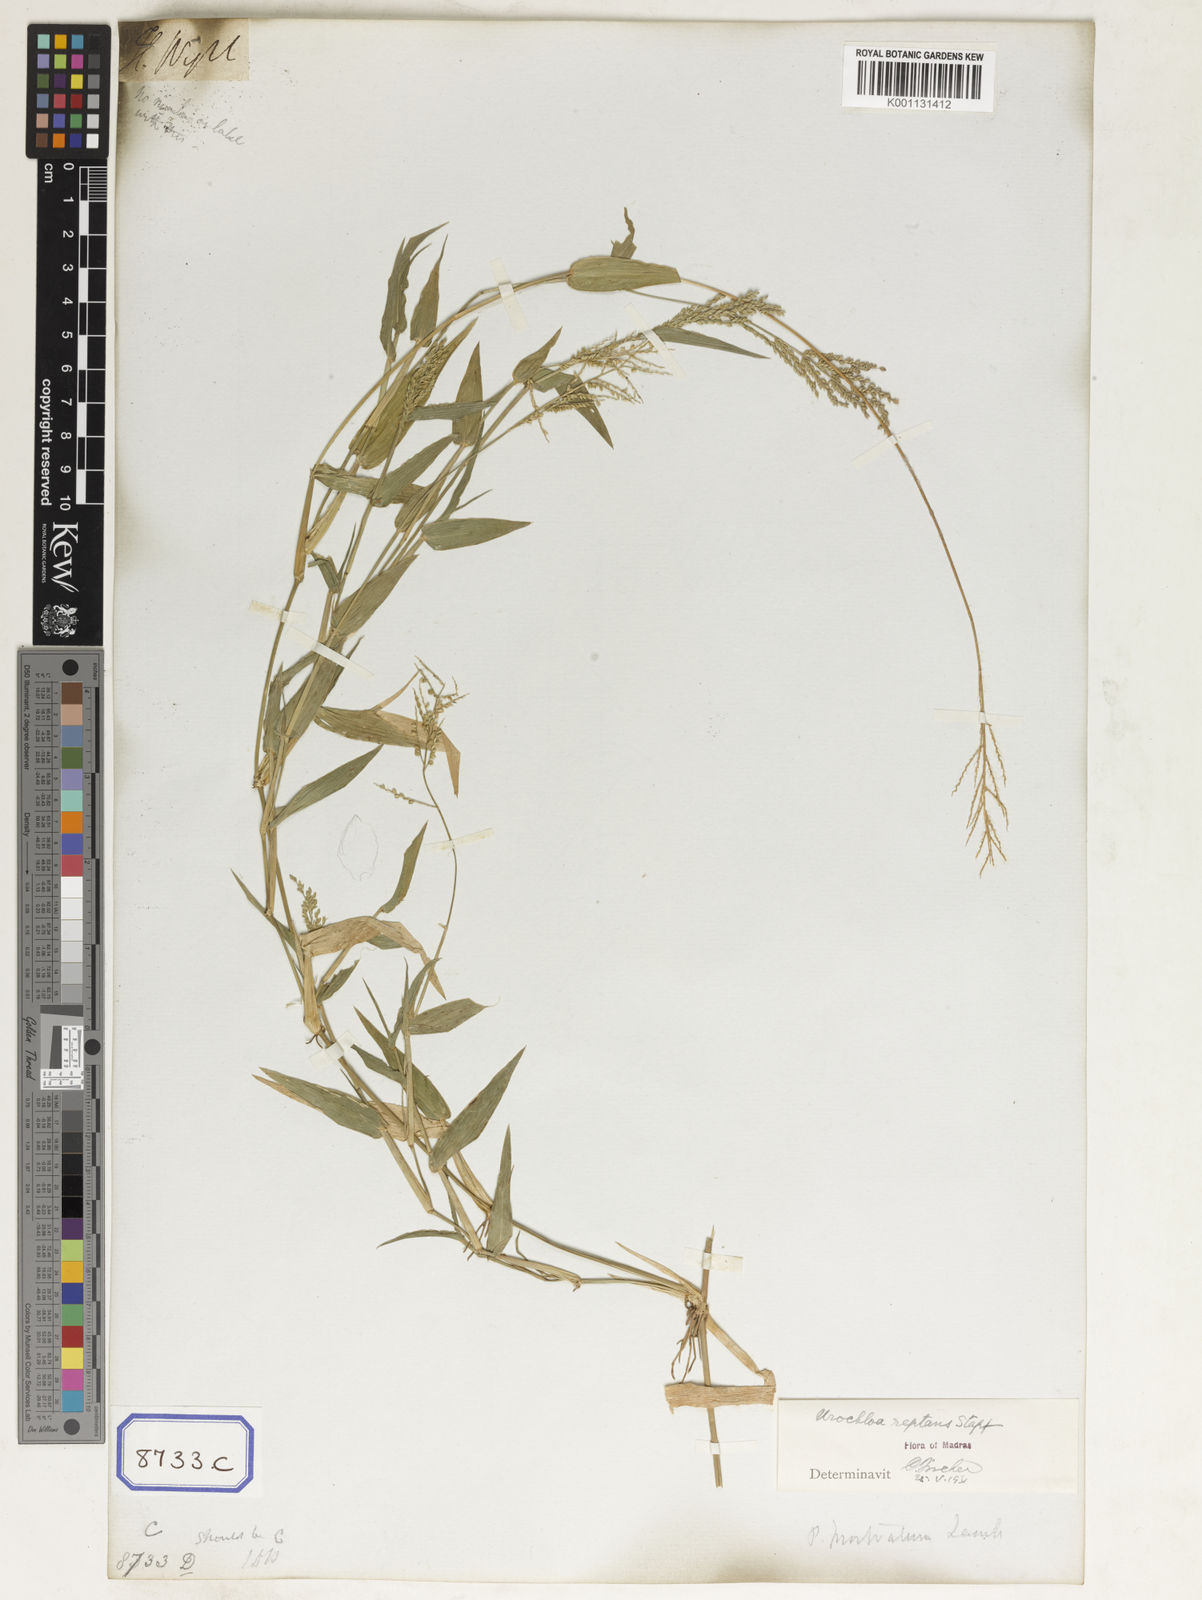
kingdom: Plantae
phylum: Tracheophyta
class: Liliopsida
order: Poales
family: Poaceae
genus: Panicum
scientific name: Panicum
